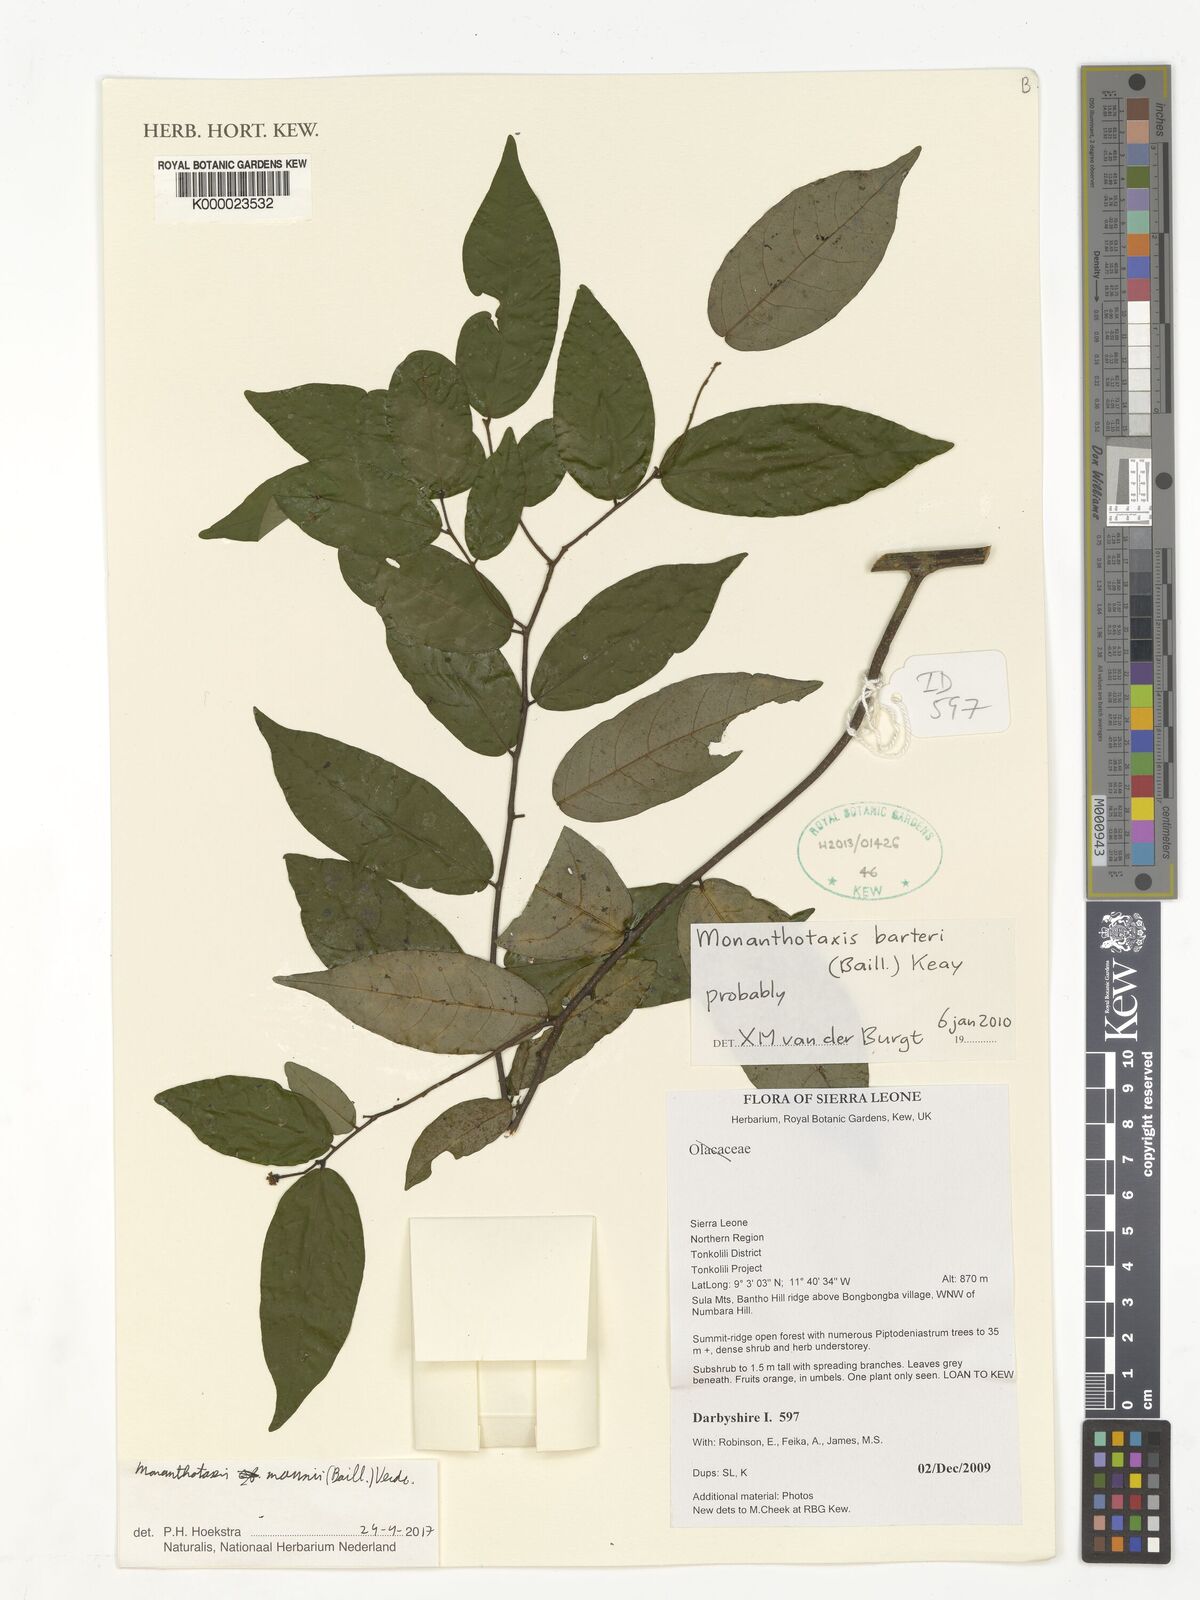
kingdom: Plantae
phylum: Tracheophyta
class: Magnoliopsida
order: Magnoliales
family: Annonaceae
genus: Monanthotaxis
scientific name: Monanthotaxis mannii
